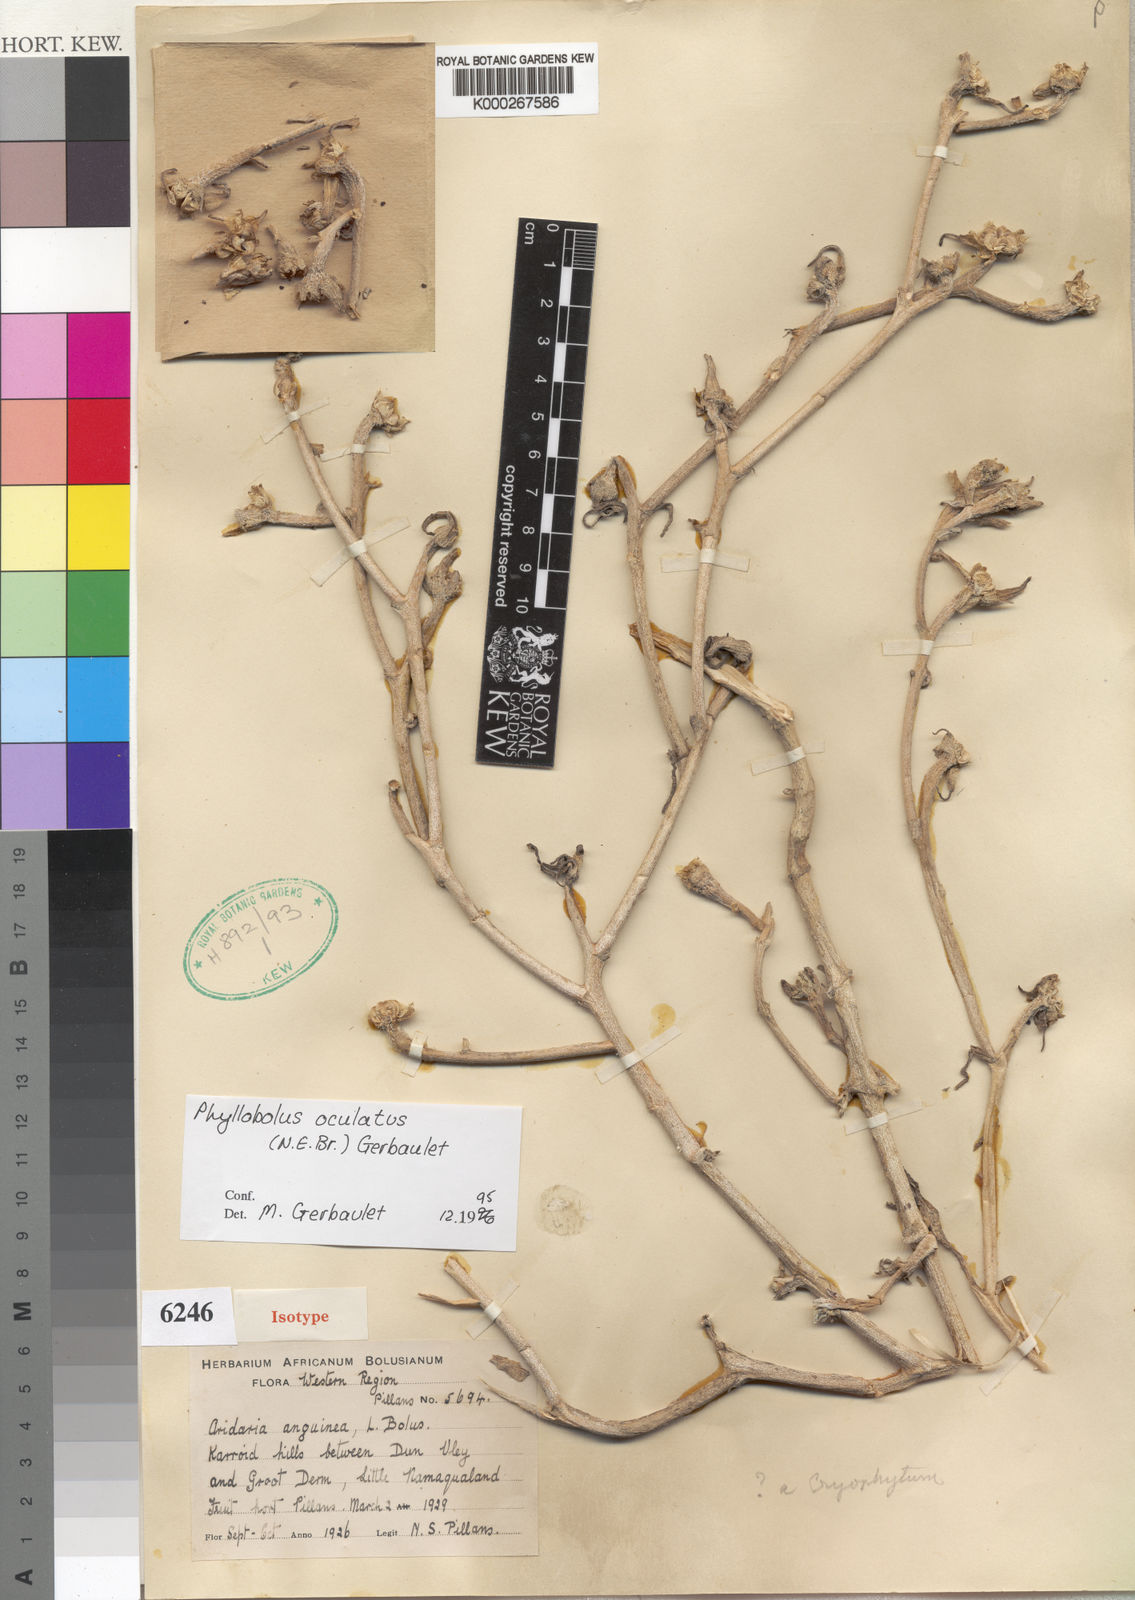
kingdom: Plantae
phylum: Tracheophyta
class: Magnoliopsida
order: Caryophyllales
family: Aizoaceae
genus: Mesembryanthemum
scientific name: Mesembryanthemum oculatum
